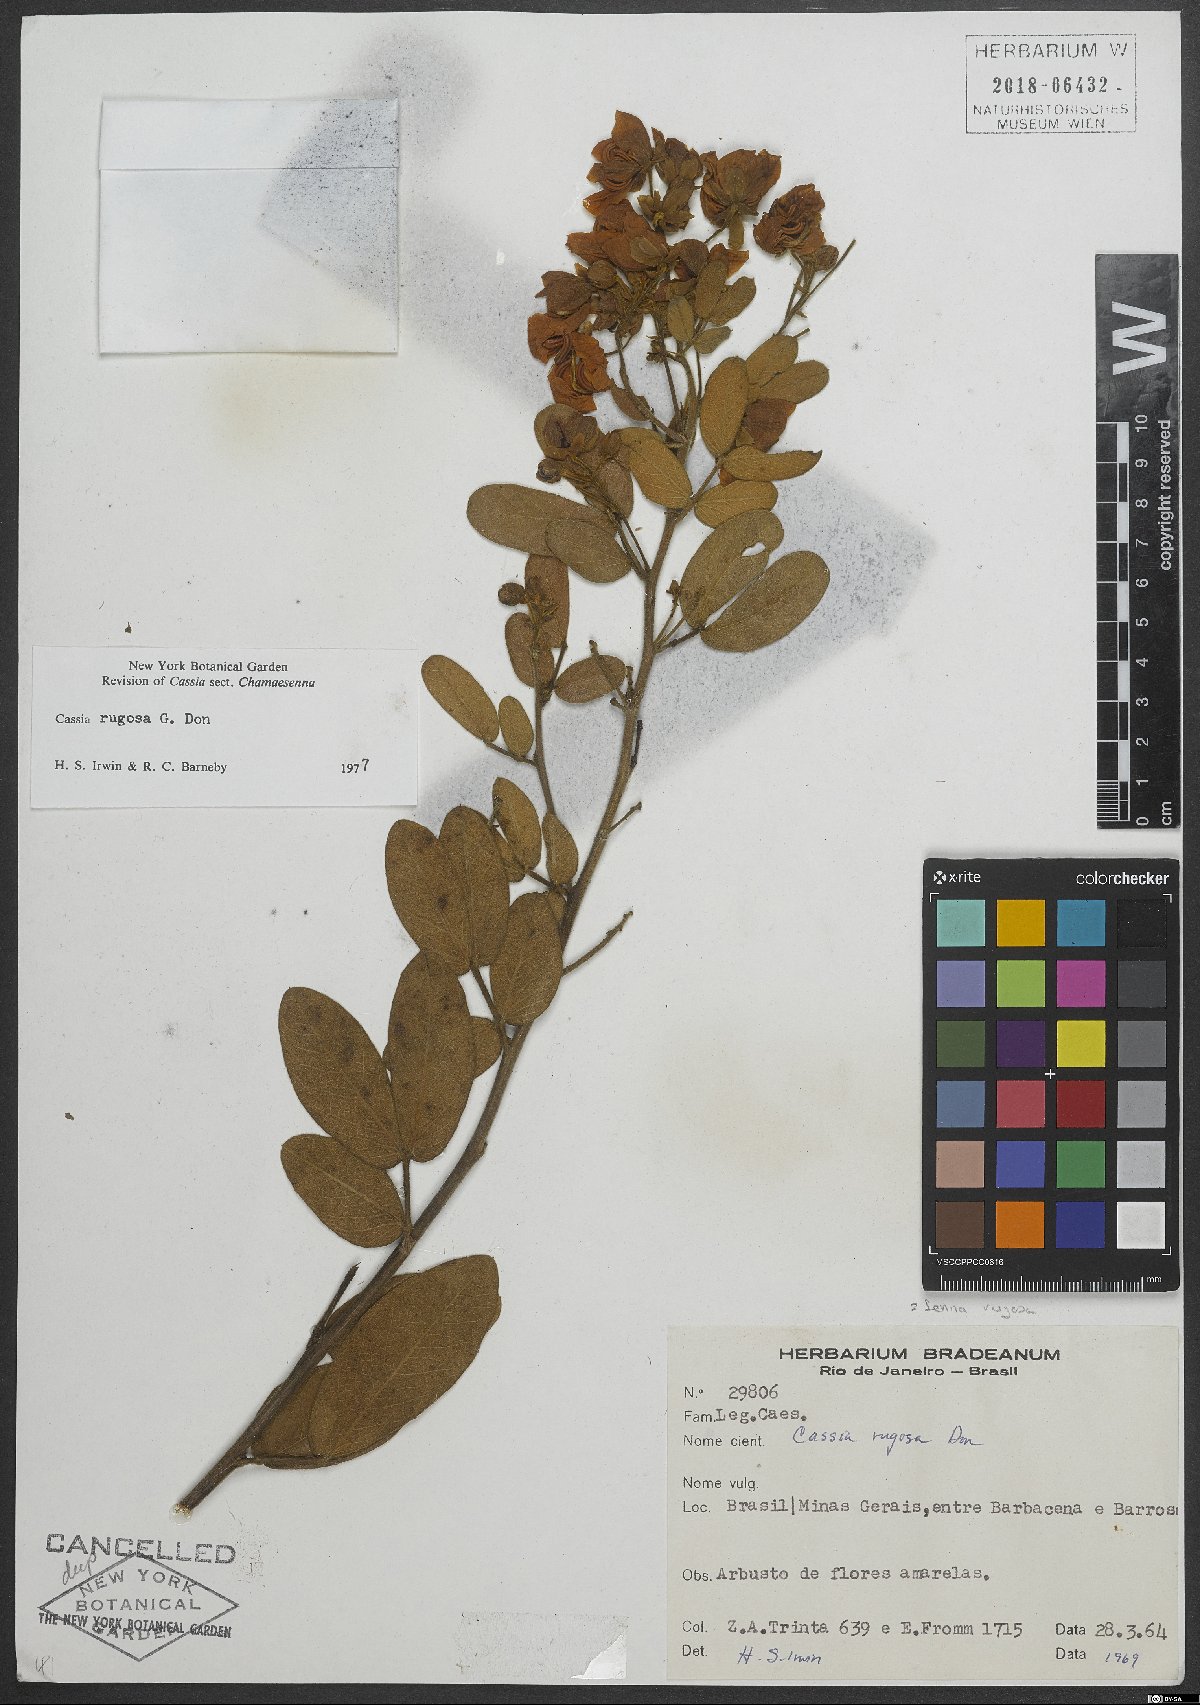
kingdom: Plantae
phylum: Tracheophyta
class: Magnoliopsida
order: Fabales
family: Fabaceae
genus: Senna
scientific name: Senna rugosa
